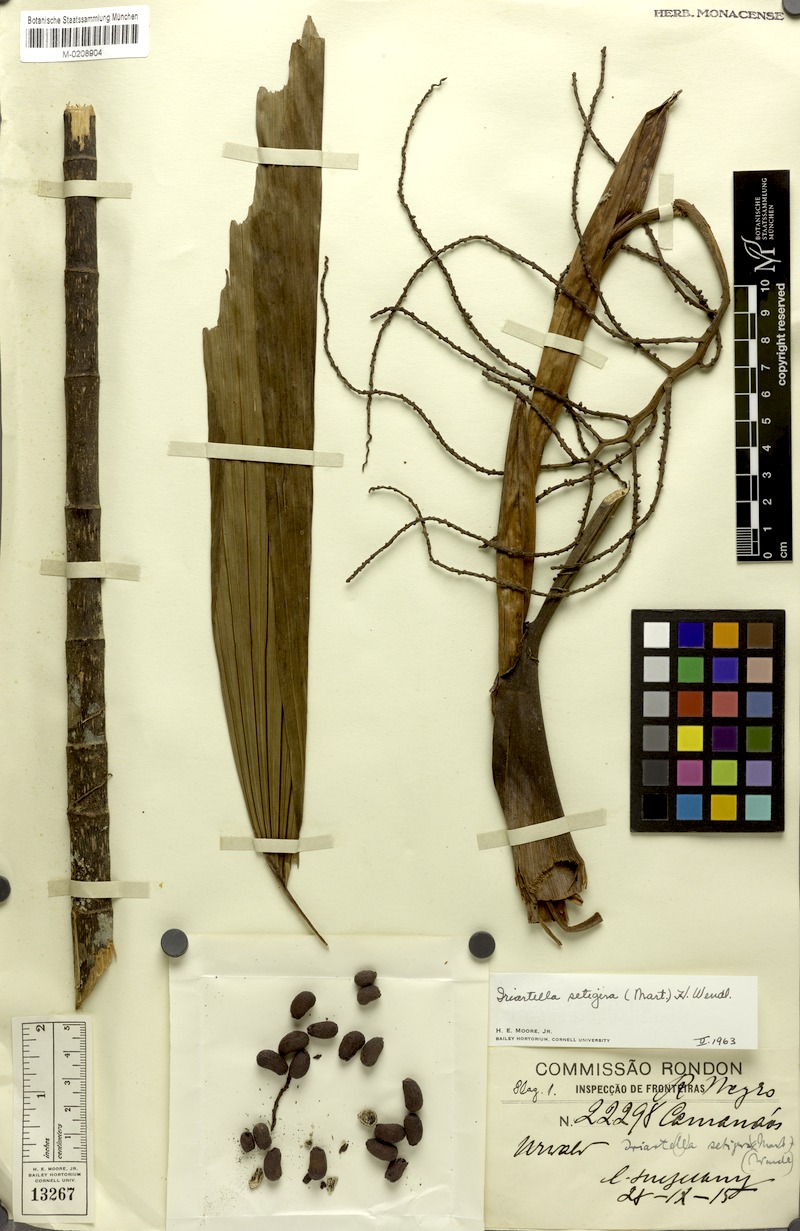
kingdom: Plantae
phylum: Tracheophyta
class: Liliopsida
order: Arecales
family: Arecaceae
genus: Iriartella
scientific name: Iriartella setigera
